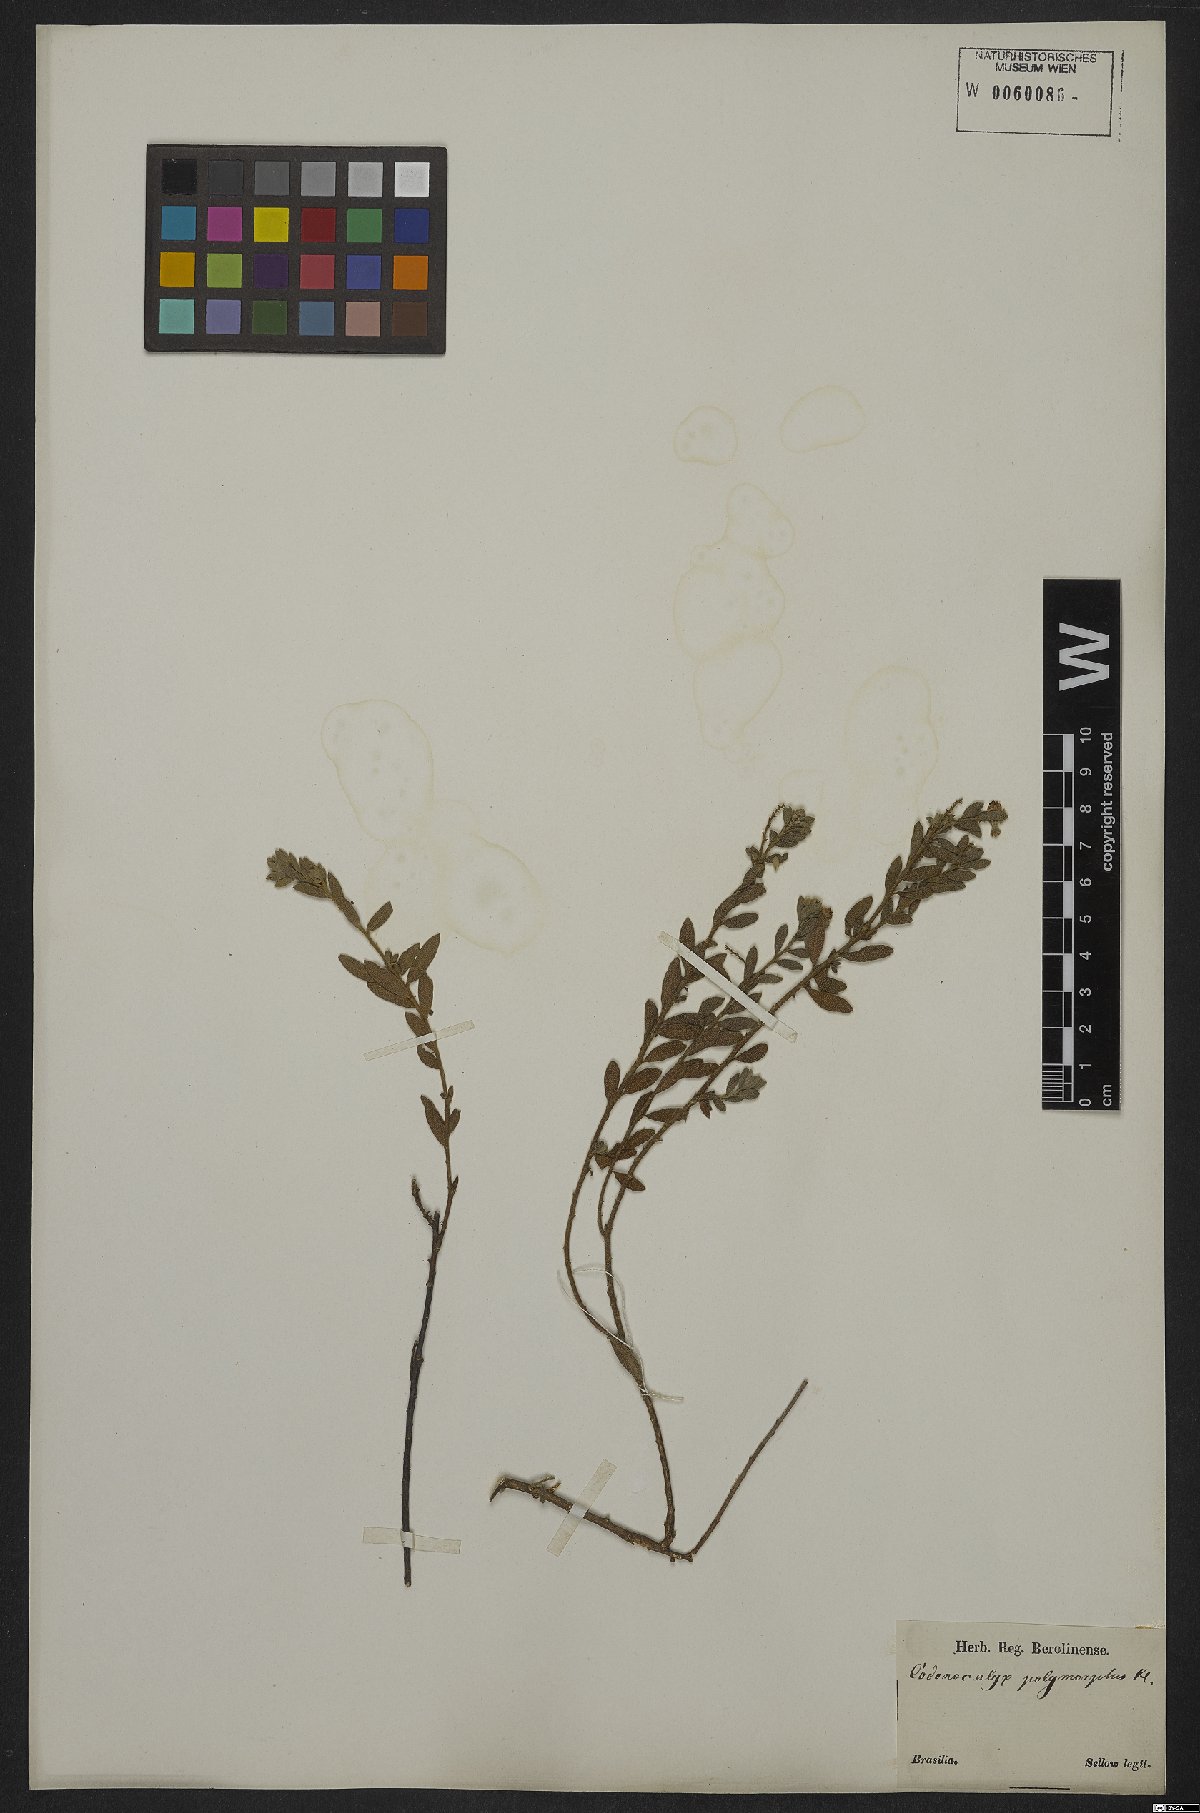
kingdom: Plantae
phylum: Tracheophyta
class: Magnoliopsida
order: Malpighiales
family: Euphorbiaceae
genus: Croton
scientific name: Croton nitrariaefolius
